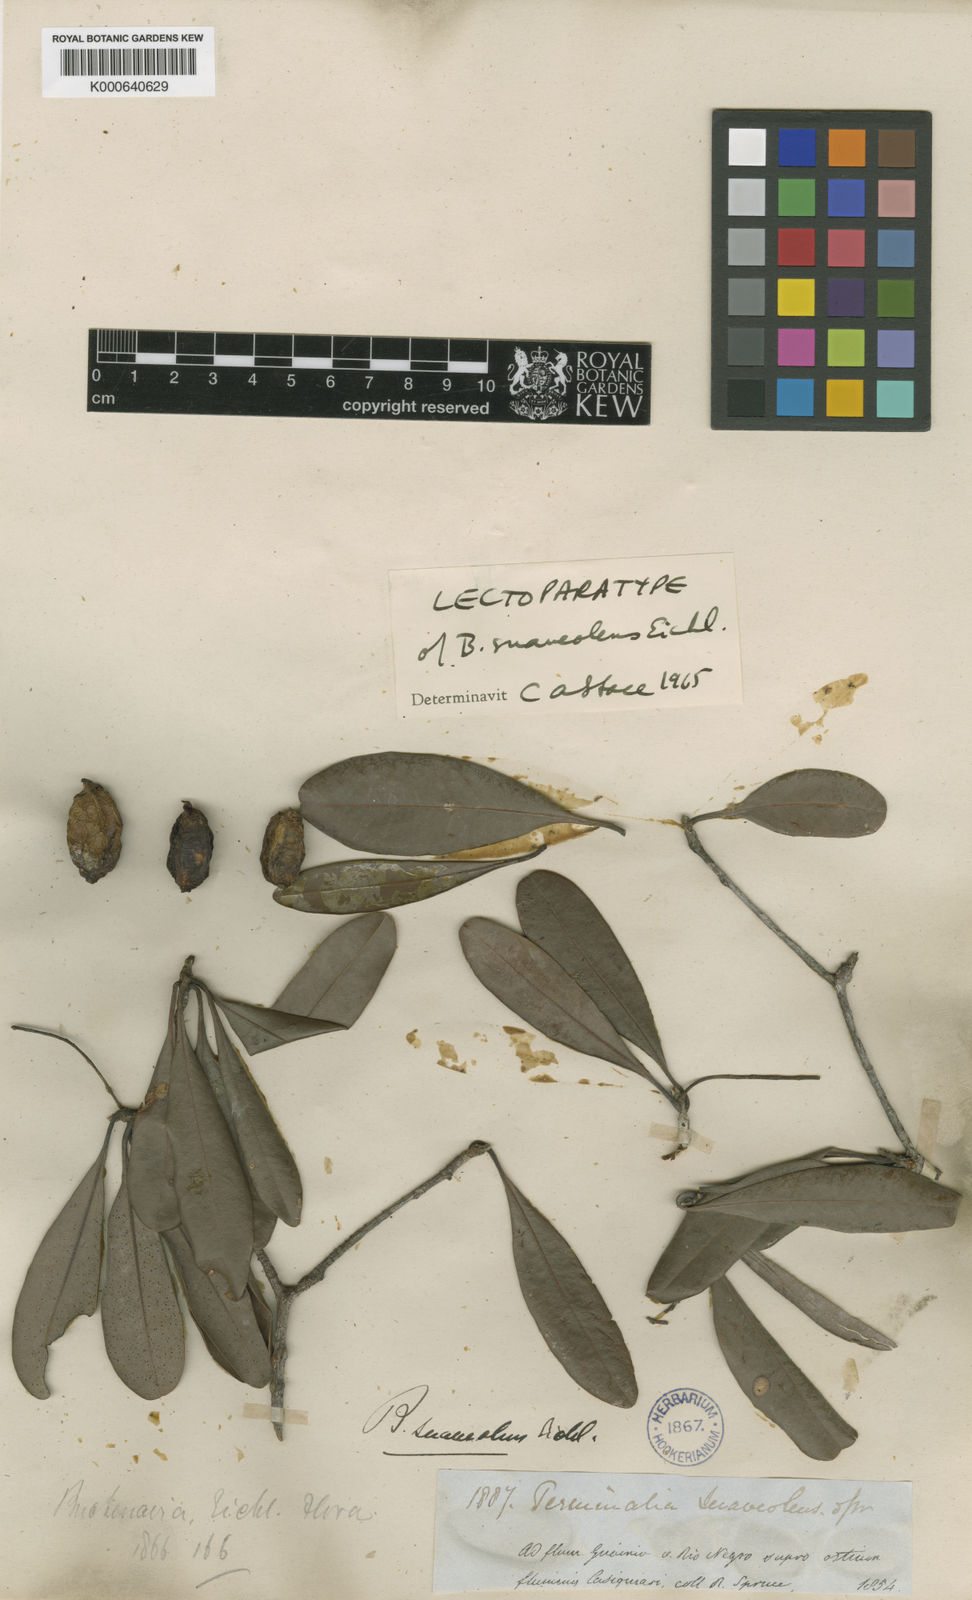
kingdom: Plantae
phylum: Tracheophyta
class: Magnoliopsida
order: Myrtales
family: Combretaceae
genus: Terminalia
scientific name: Terminalia suaveolens
